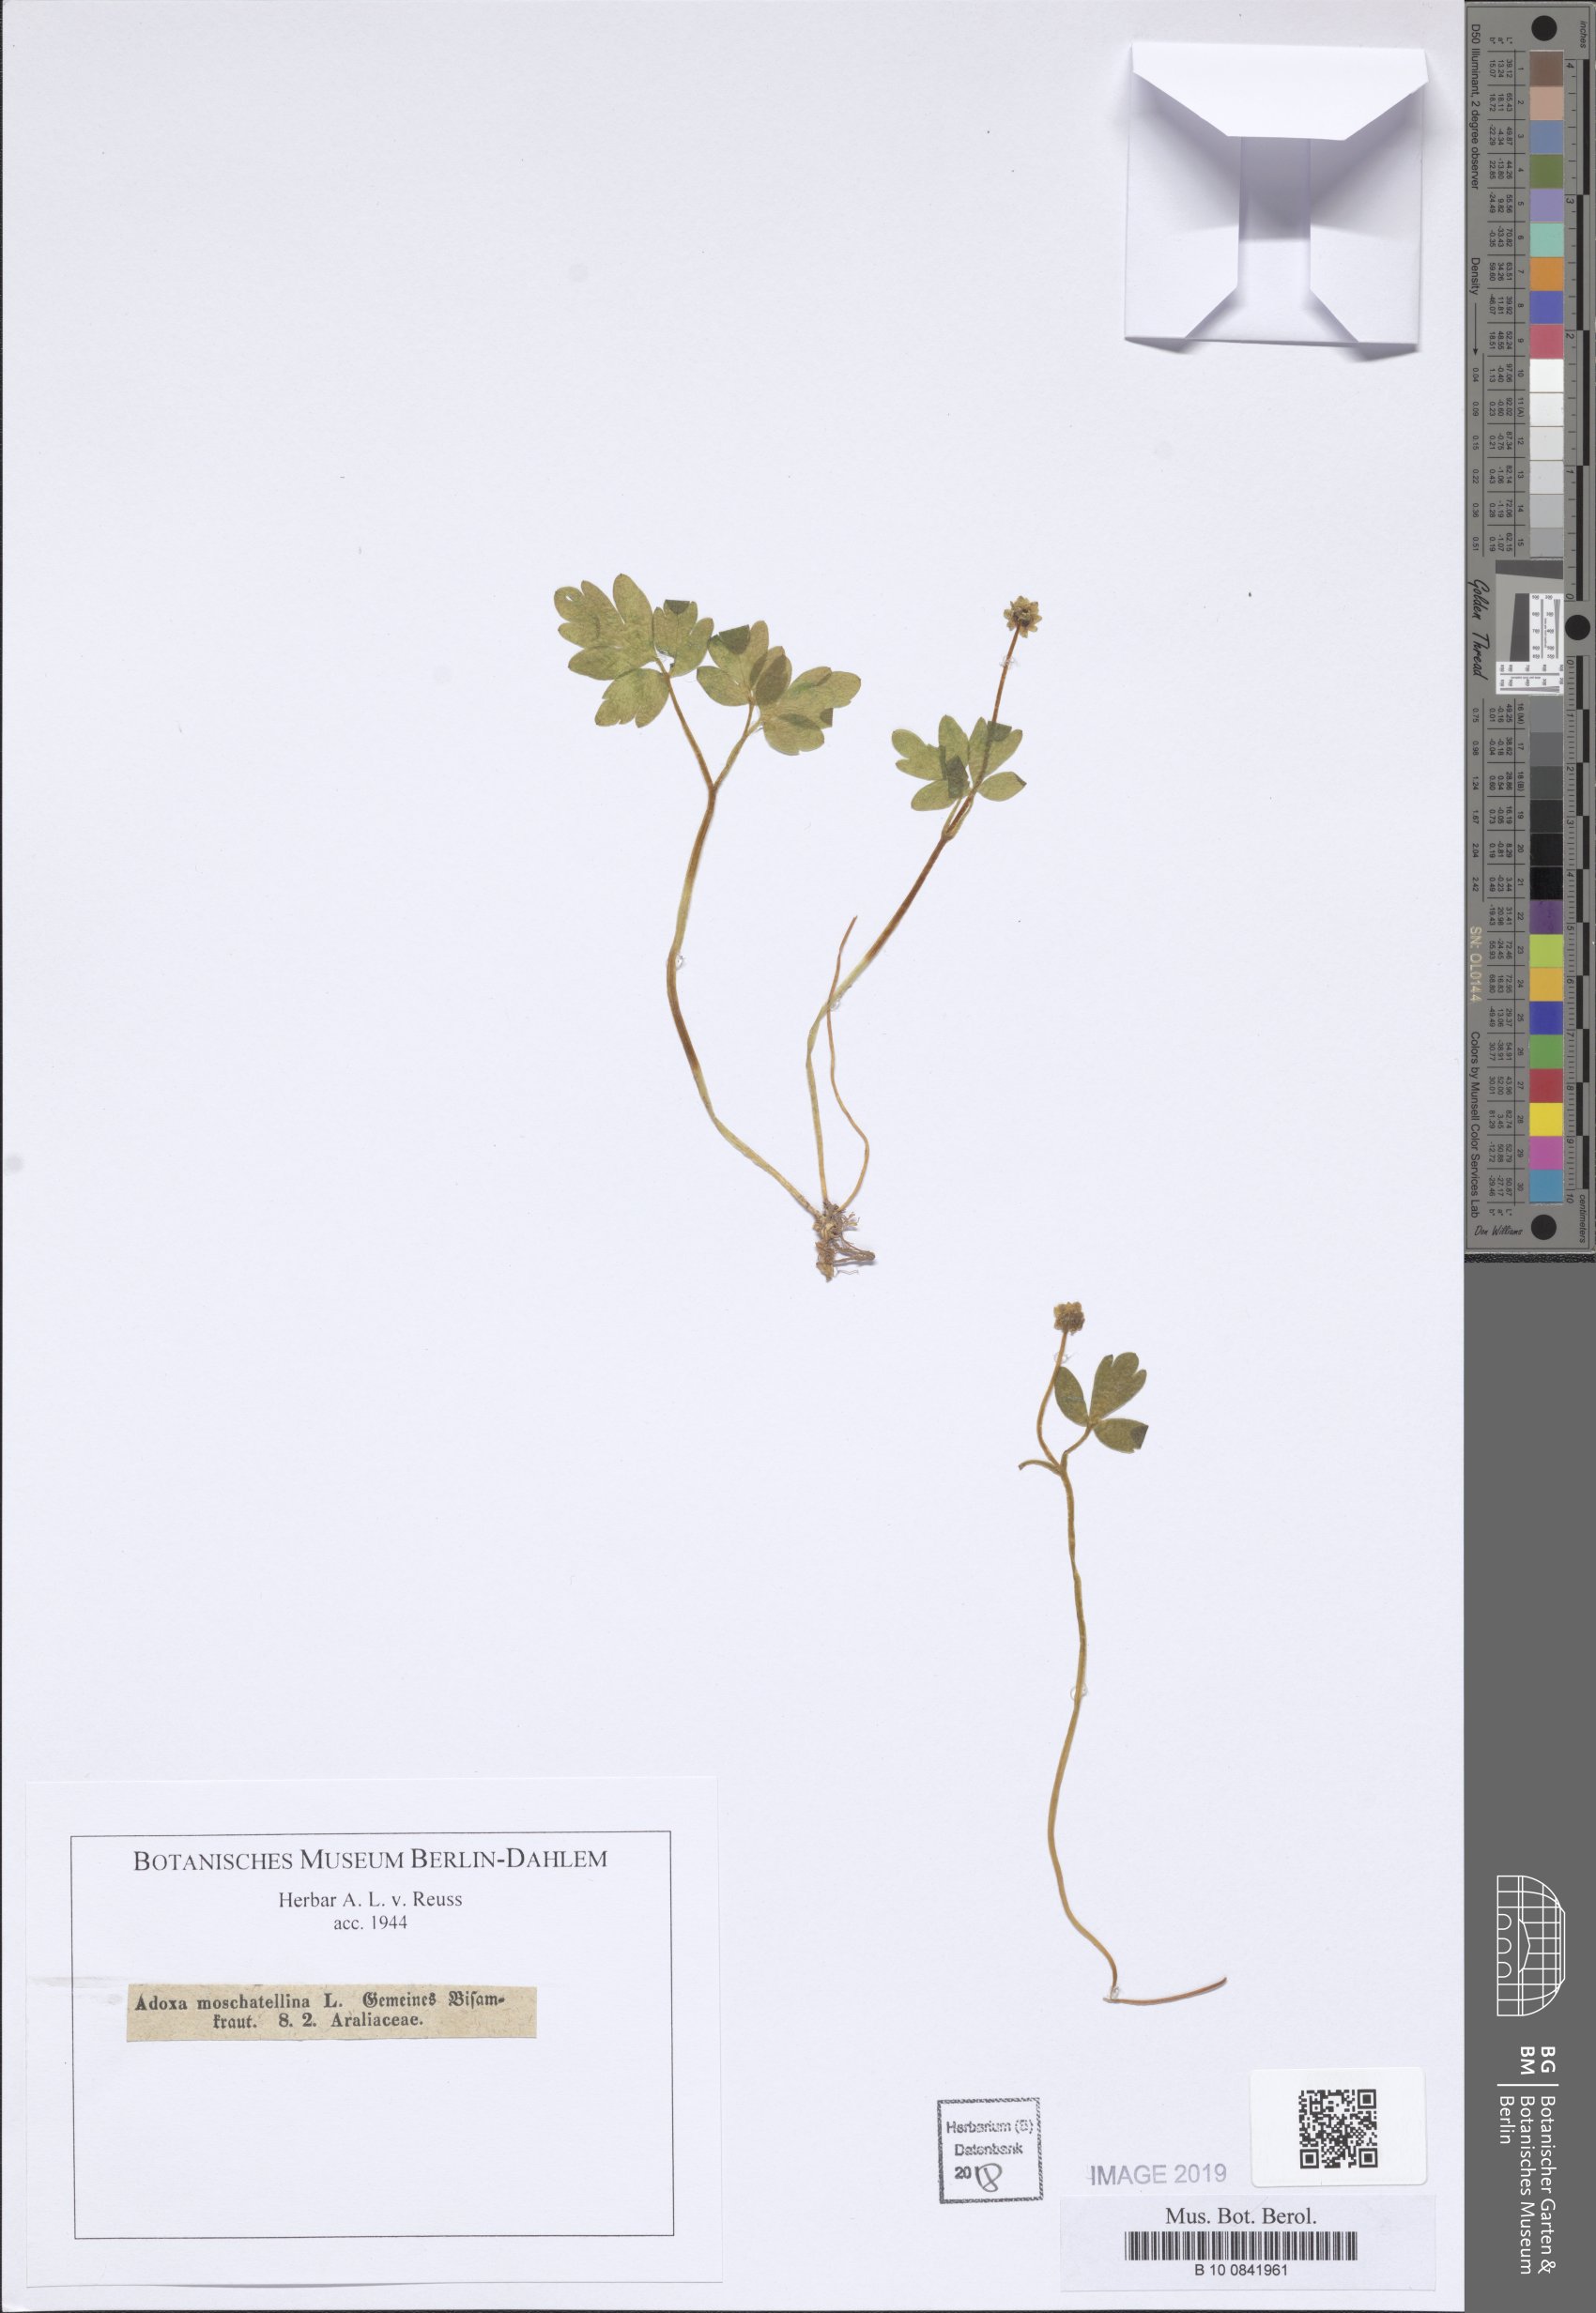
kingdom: Plantae
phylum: Tracheophyta
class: Magnoliopsida
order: Dipsacales
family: Viburnaceae
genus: Adoxa
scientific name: Adoxa moschatellina
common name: Moschatel
